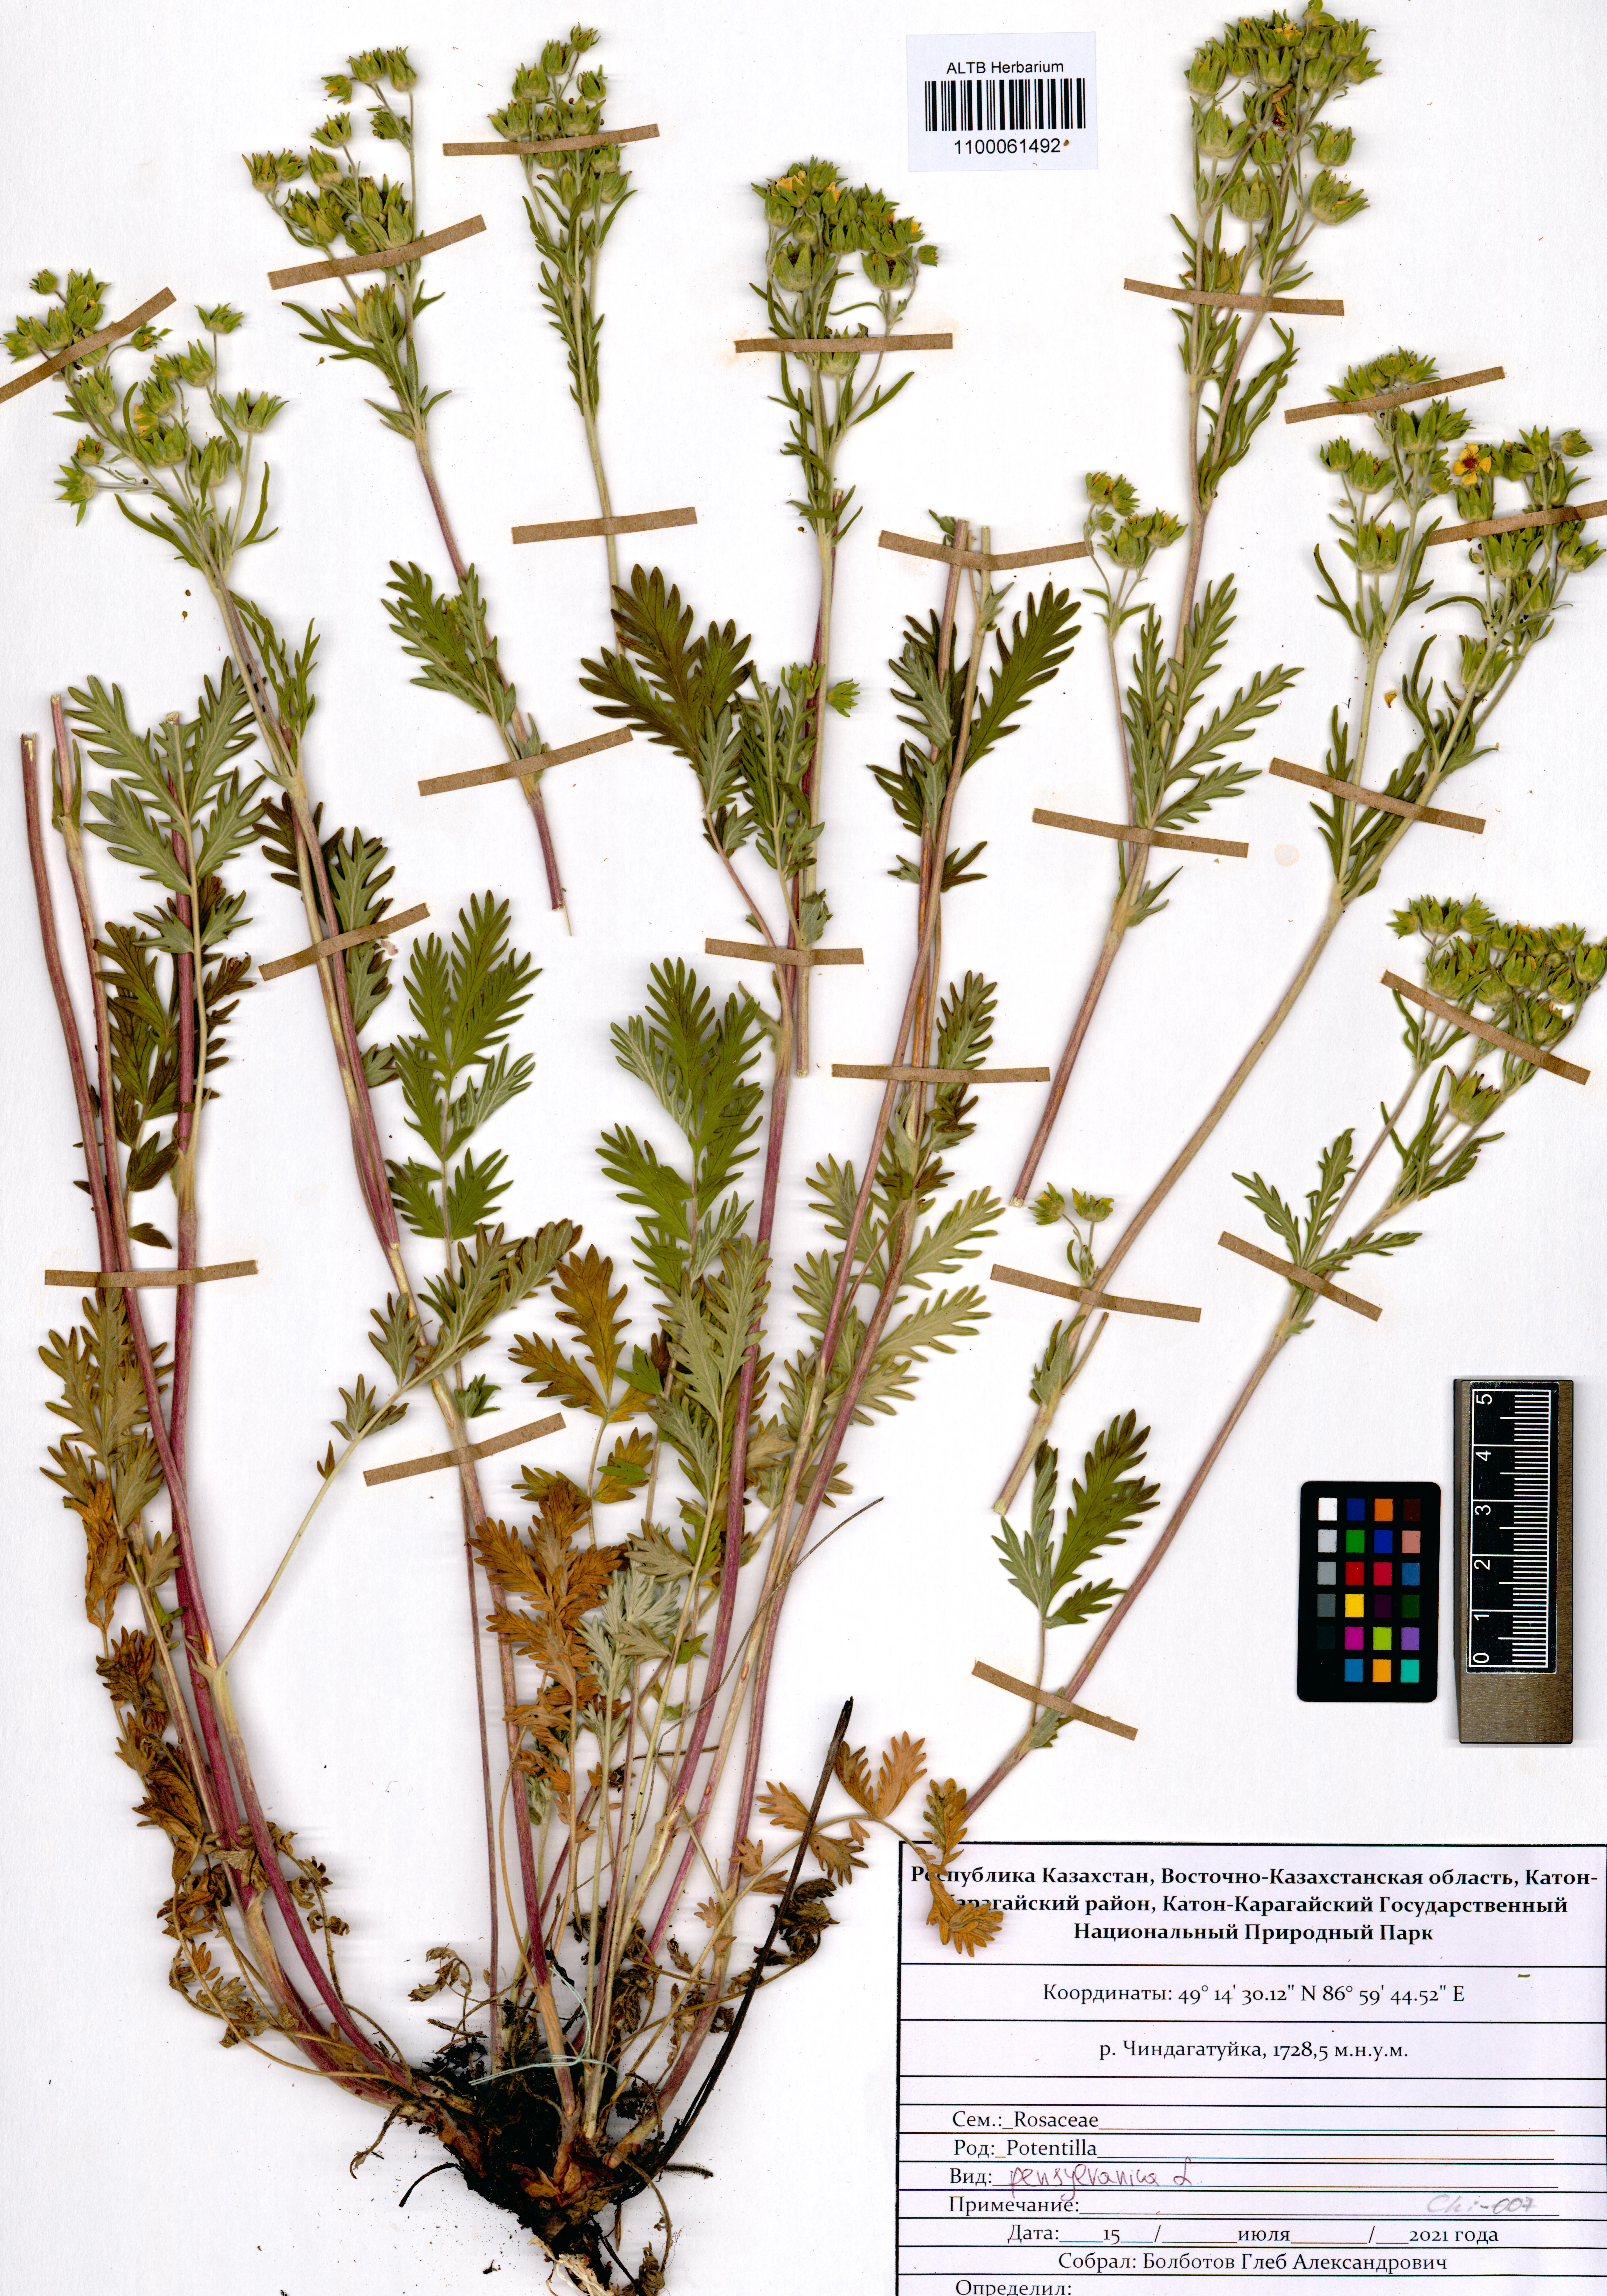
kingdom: Plantae
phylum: Tracheophyta
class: Magnoliopsida
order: Rosales
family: Rosaceae
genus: Potentilla
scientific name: Potentilla pensylvanica
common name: Pennsylvania cinquefoil
